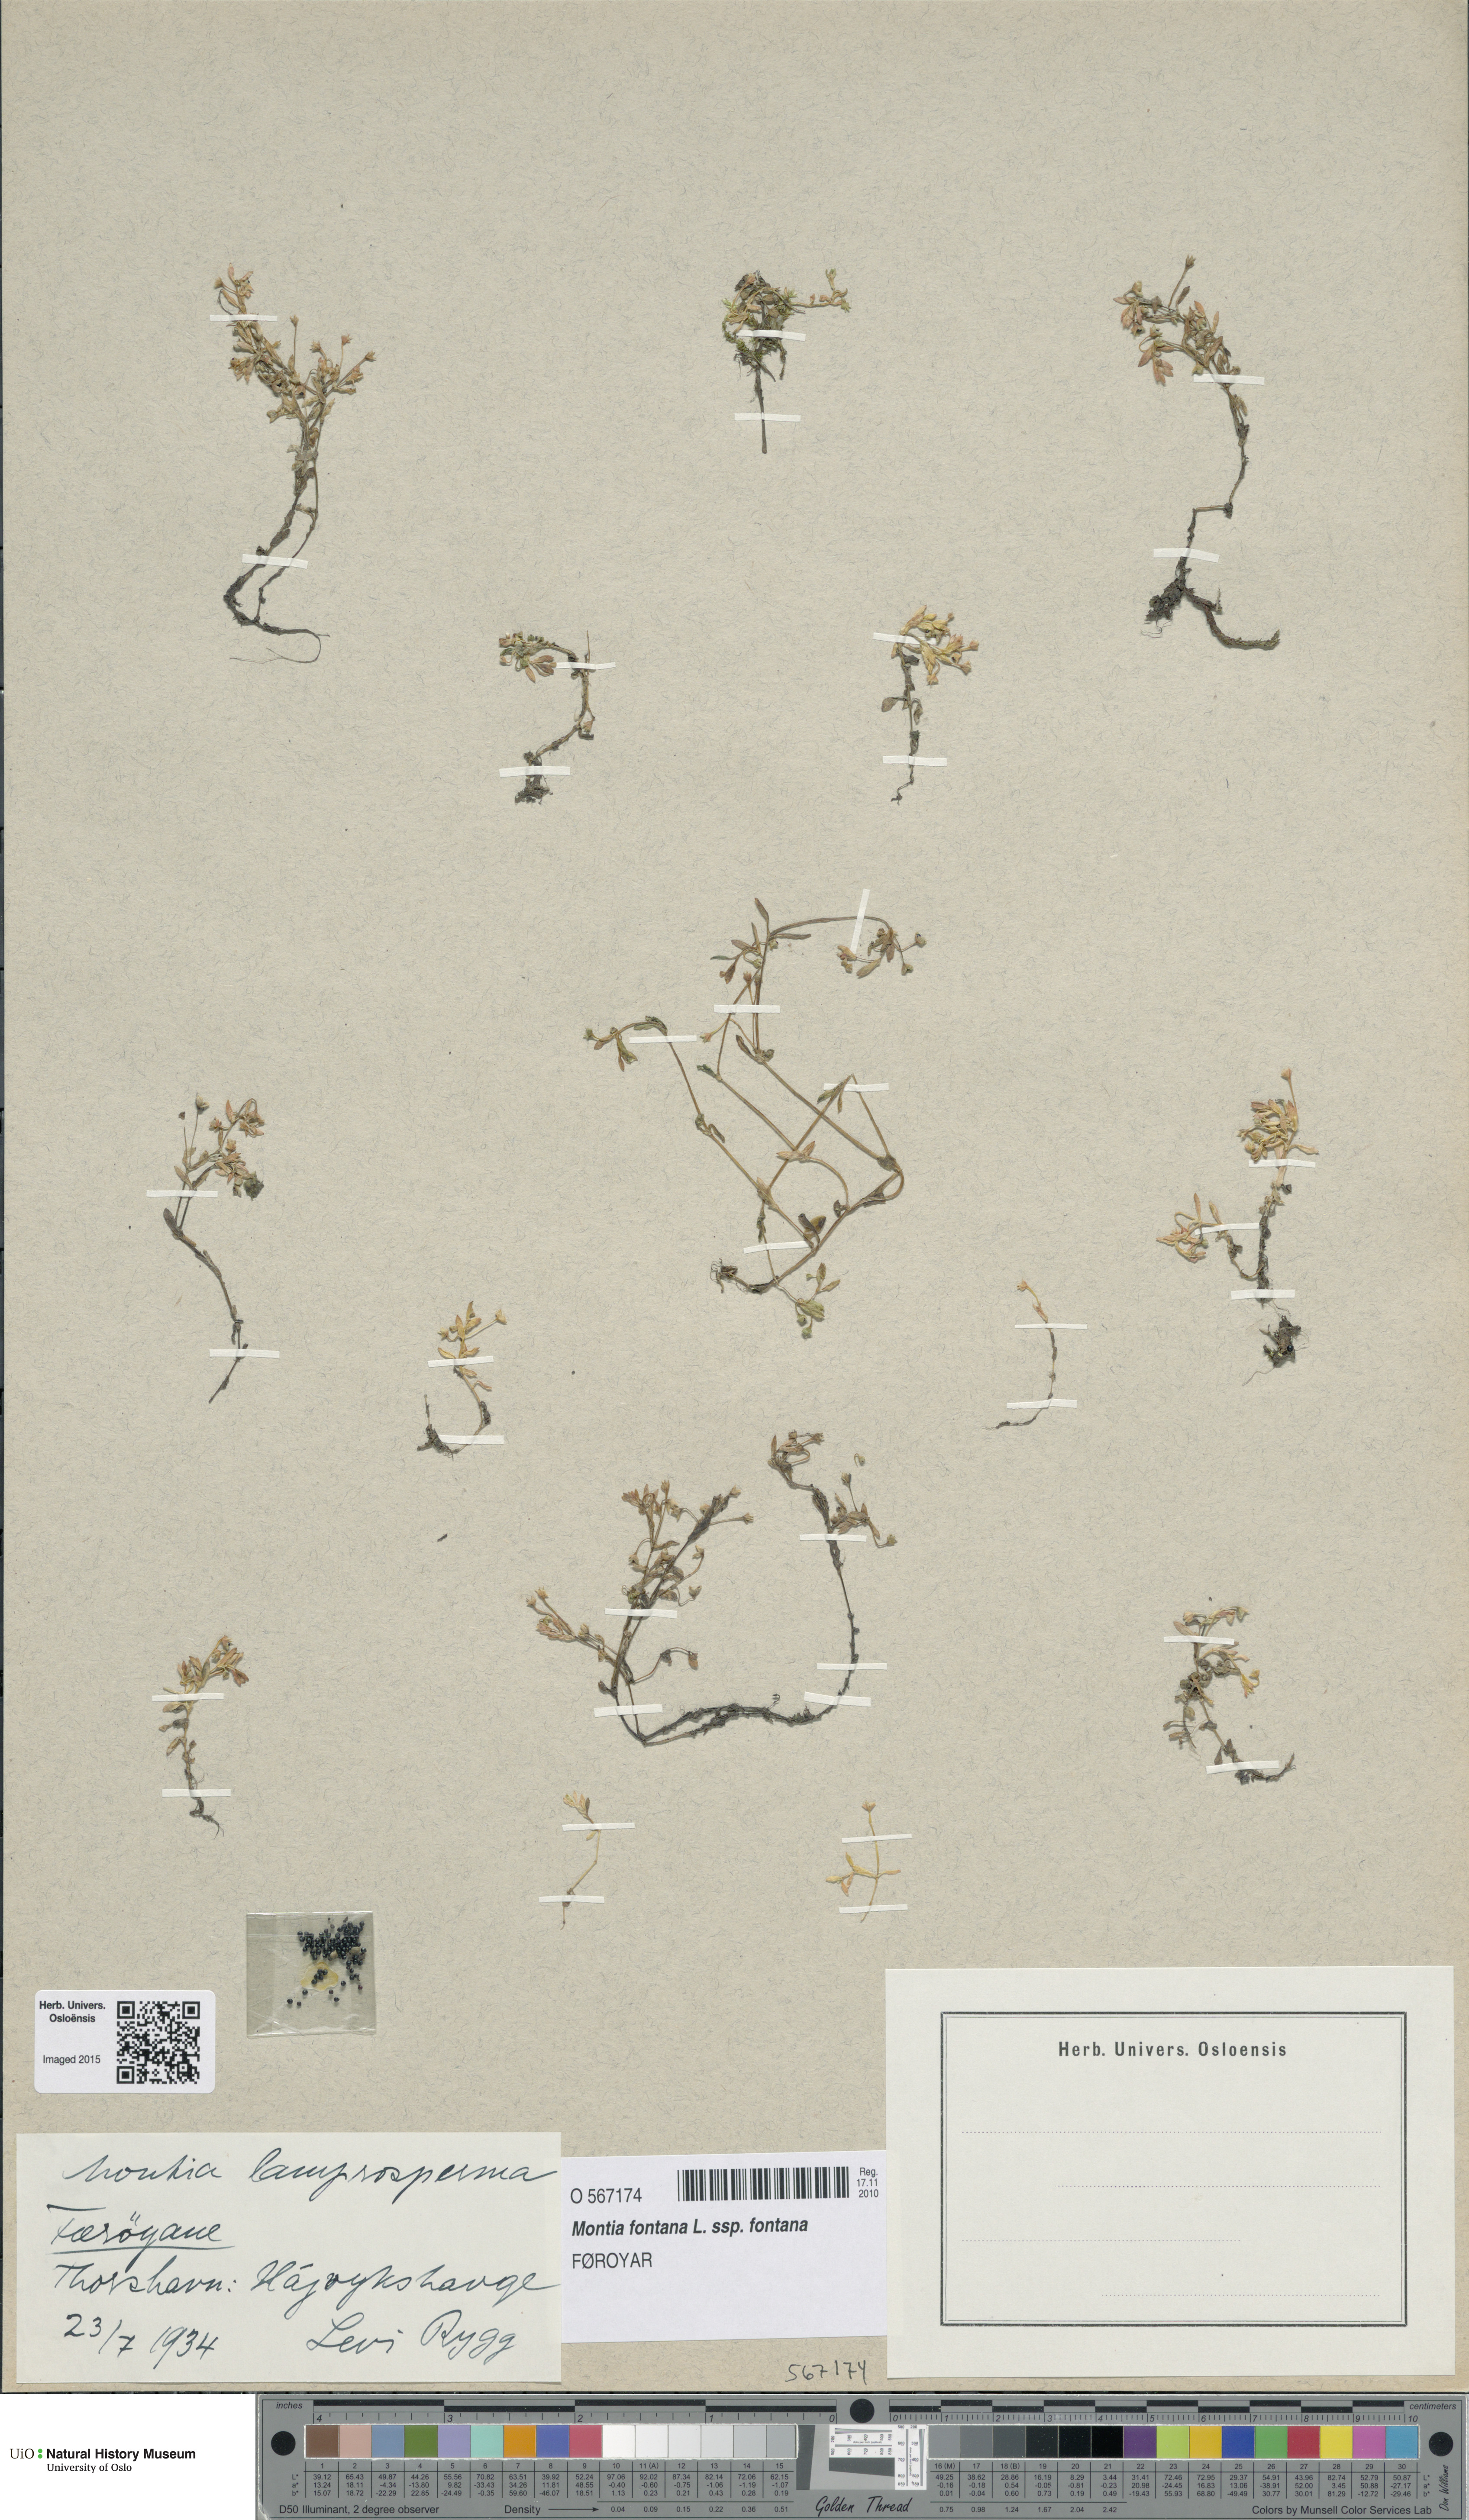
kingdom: Plantae
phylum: Tracheophyta
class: Magnoliopsida
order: Caryophyllales
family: Montiaceae
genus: Montia
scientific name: Montia fontana
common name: Blinks
